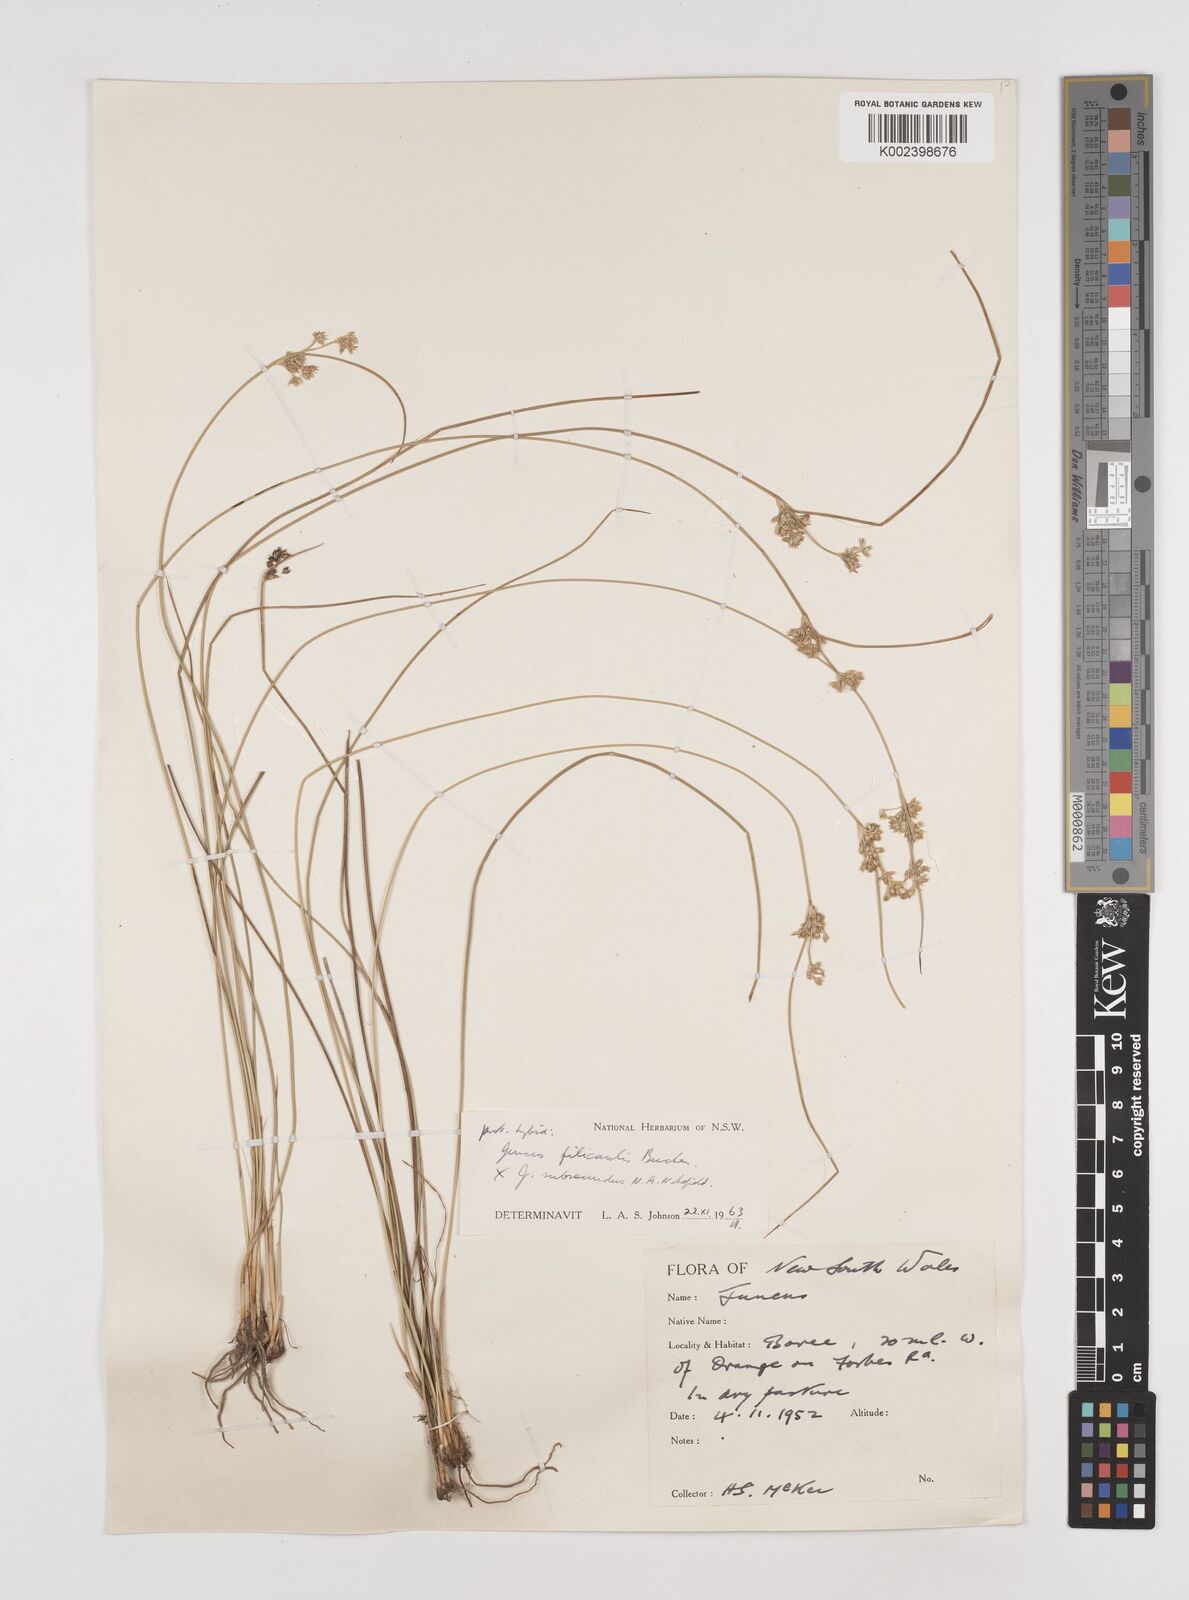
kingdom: Plantae
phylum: Tracheophyta
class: Liliopsida
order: Poales
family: Juncaceae
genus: Juncus
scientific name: Juncus filicaulis
